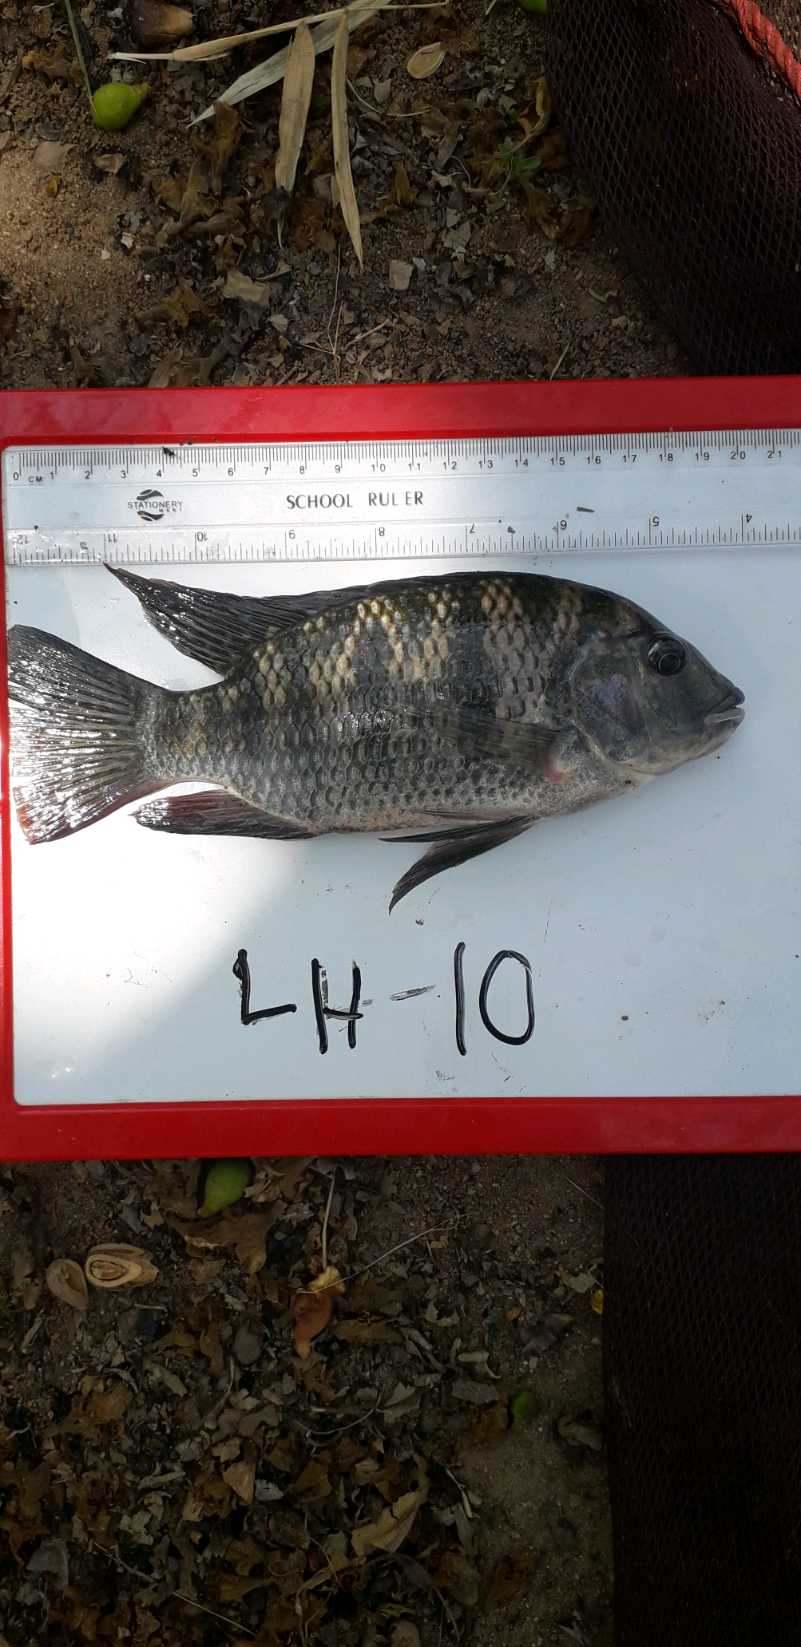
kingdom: Animalia
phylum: Chordata
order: Perciformes
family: Cichlidae
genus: Coptodon
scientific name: Coptodon rendalli
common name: Redbreast tilapia
